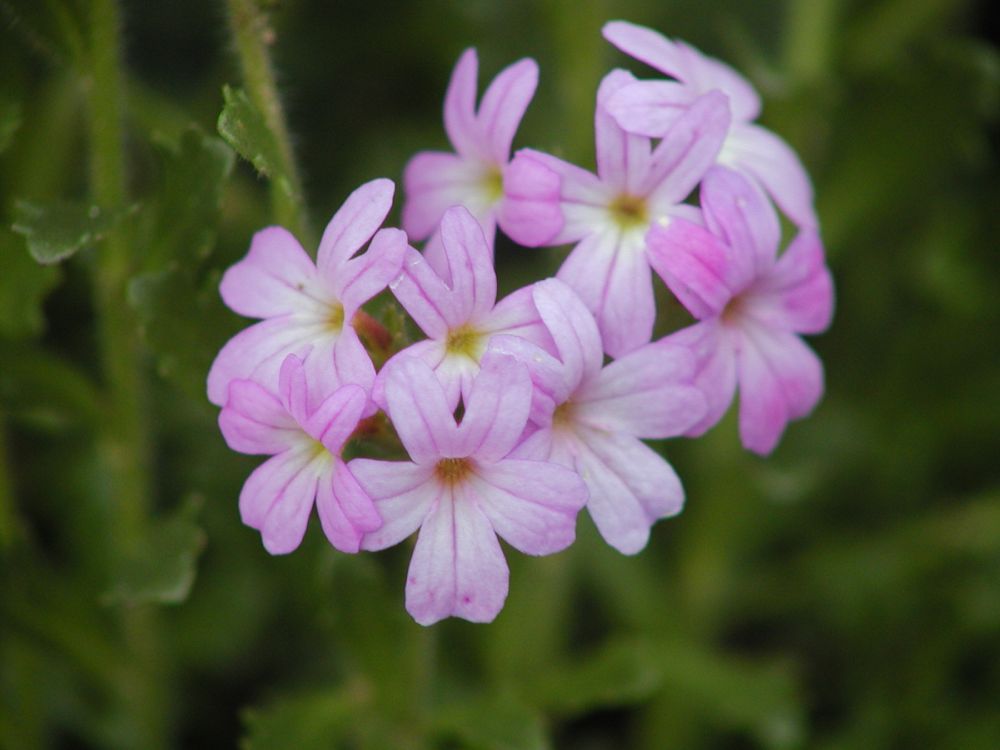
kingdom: Plantae
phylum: Tracheophyta
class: Magnoliopsida
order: Lamiales
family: Plantaginaceae
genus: Erinus
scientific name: Erinus alpinus
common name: Fairy foxglove
